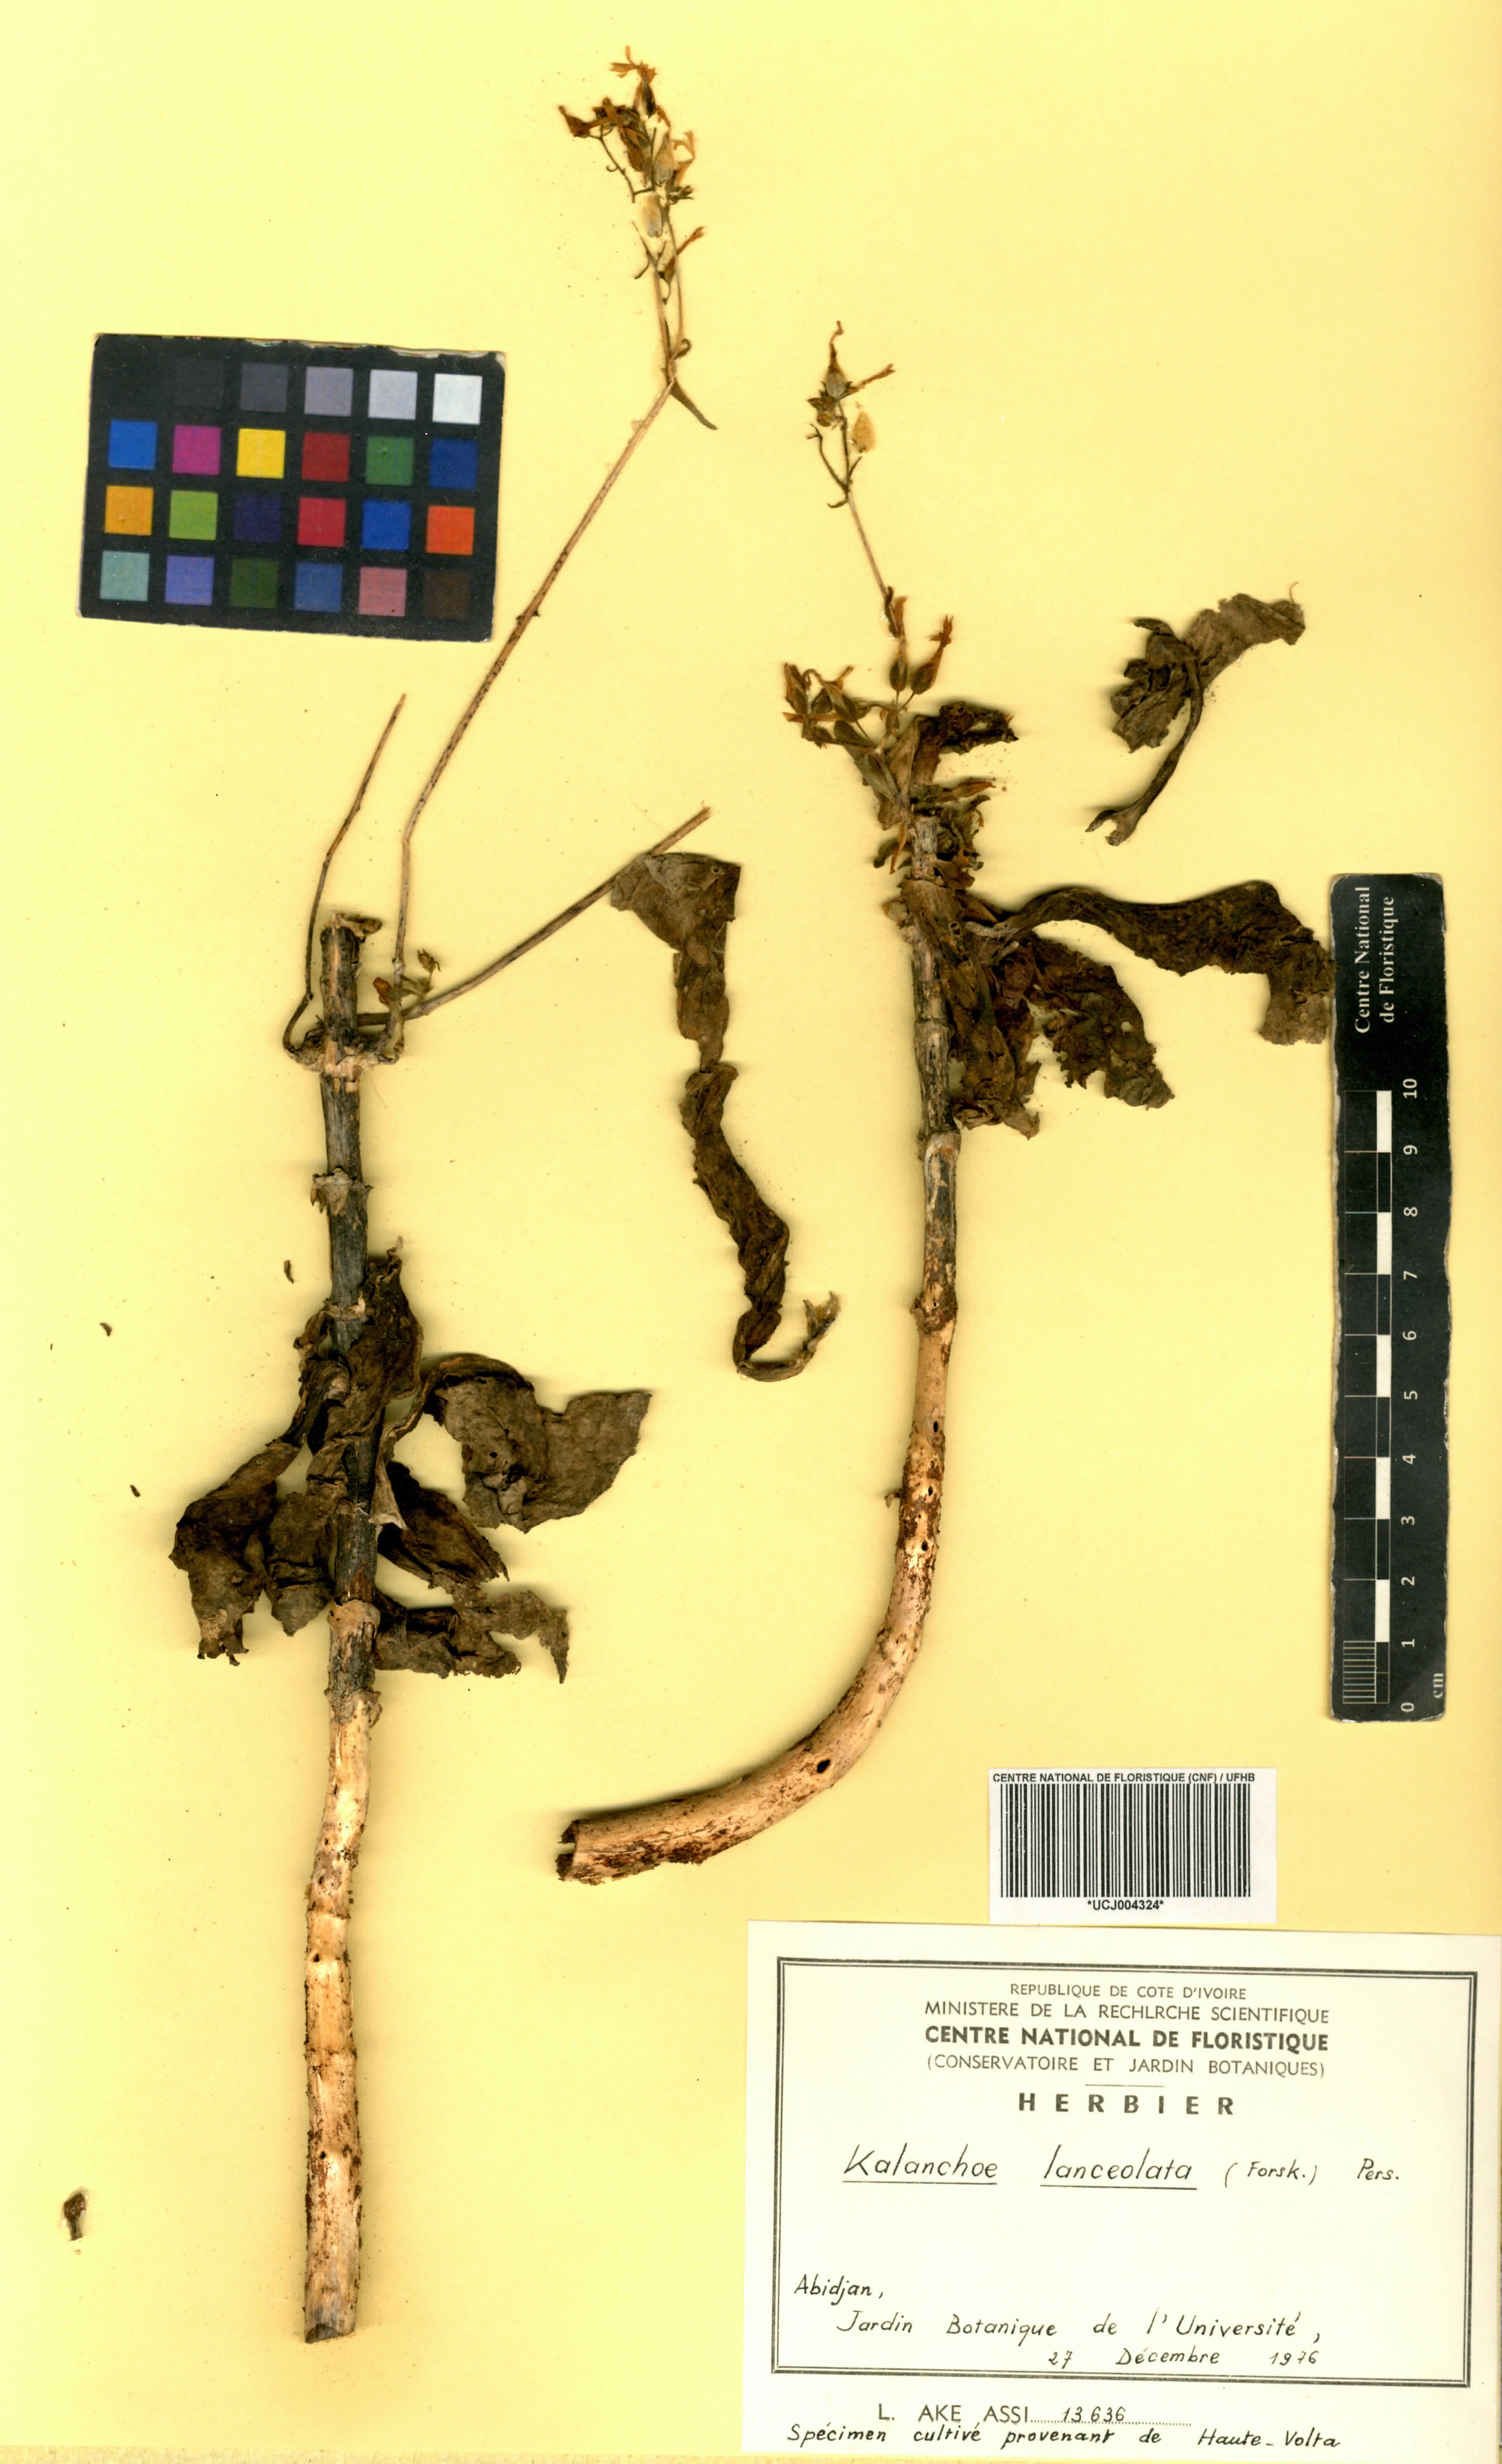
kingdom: Plantae
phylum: Tracheophyta
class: Magnoliopsida
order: Saxifragales
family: Crassulaceae
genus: Kalanchoe
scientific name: Kalanchoe lanceolata
